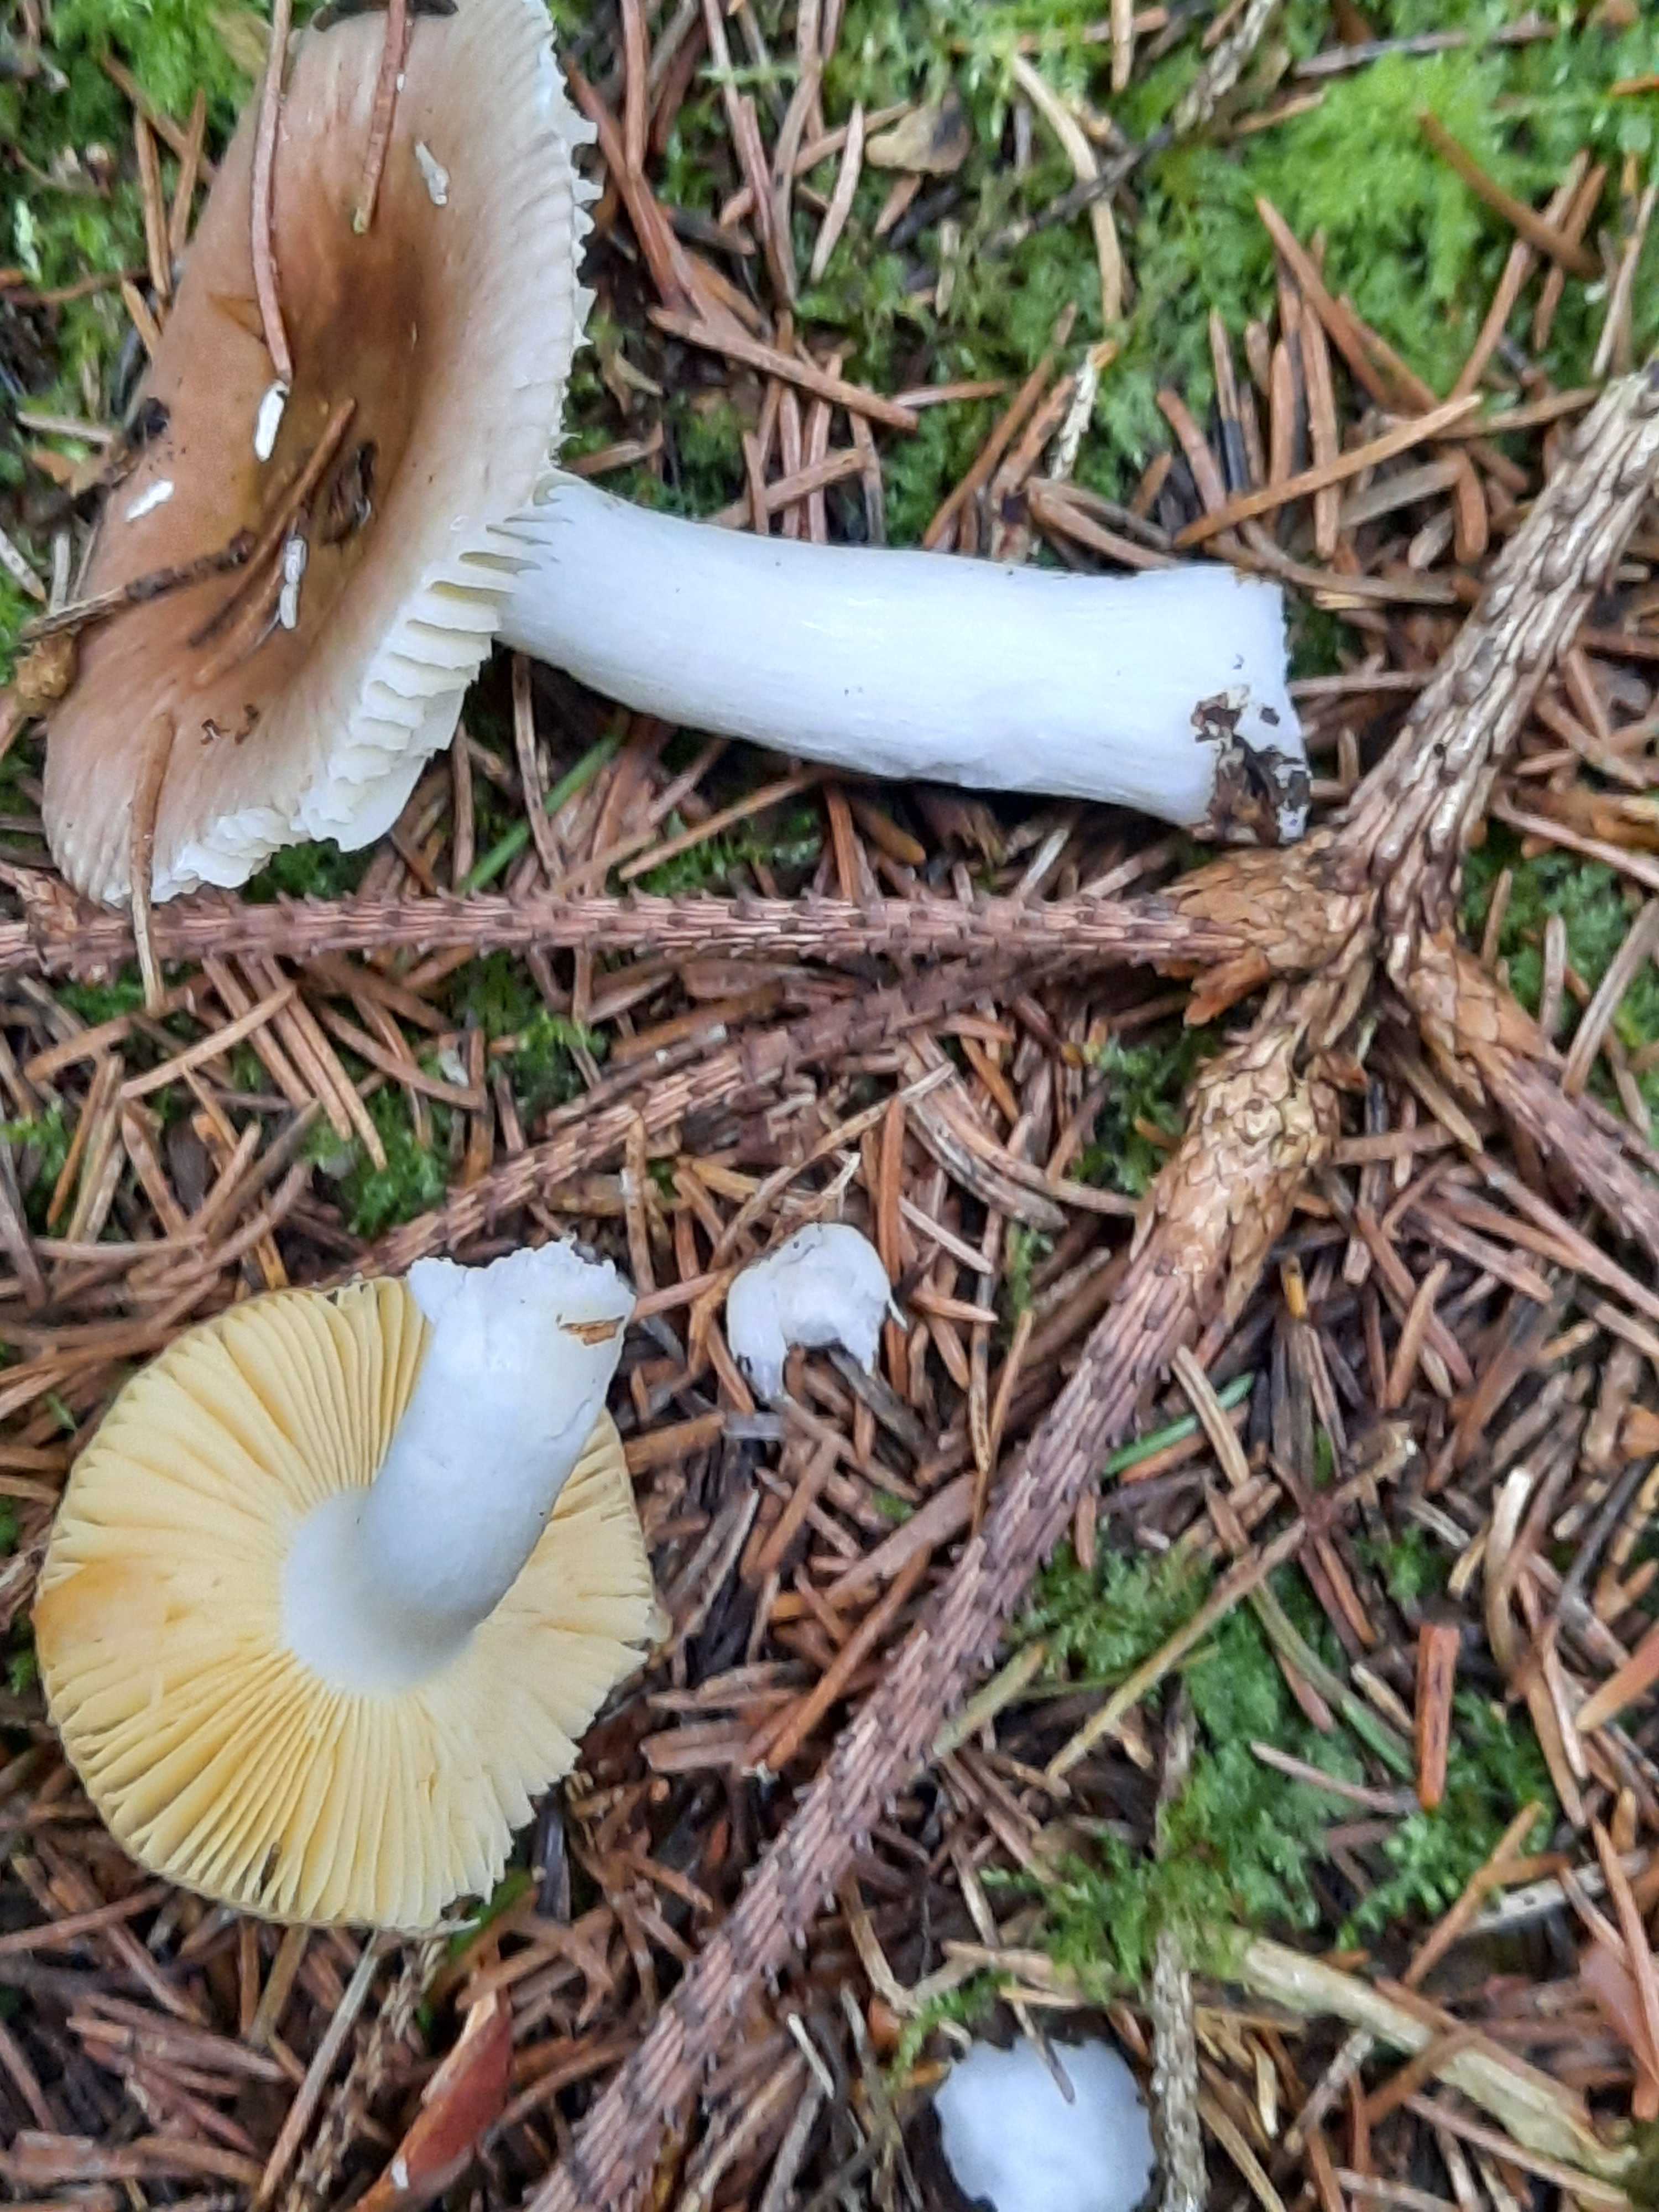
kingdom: Fungi
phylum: Basidiomycota
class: Agaricomycetes
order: Russulales
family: Russulaceae
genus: Russula
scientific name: Russula nauseosa
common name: spinkel skørhat
